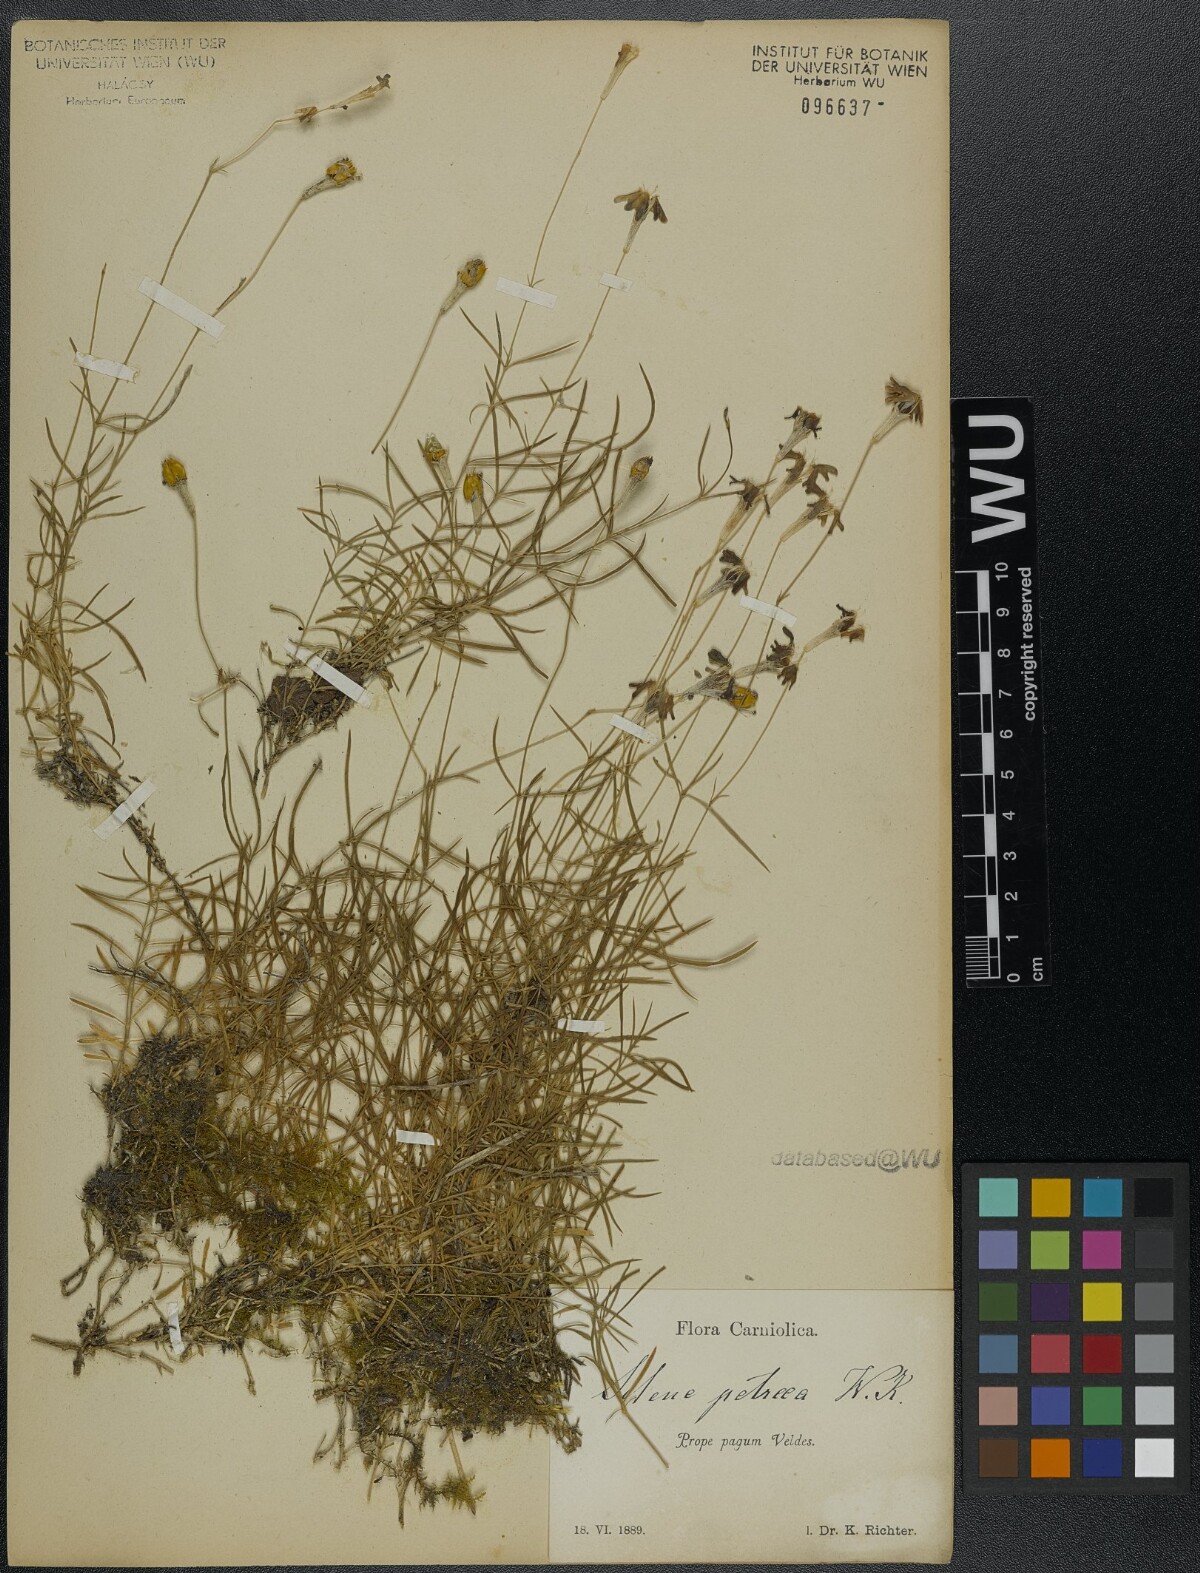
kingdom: Plantae
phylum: Tracheophyta
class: Magnoliopsida
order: Caryophyllales
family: Caryophyllaceae
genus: Silene
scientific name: Silene hayekiana
